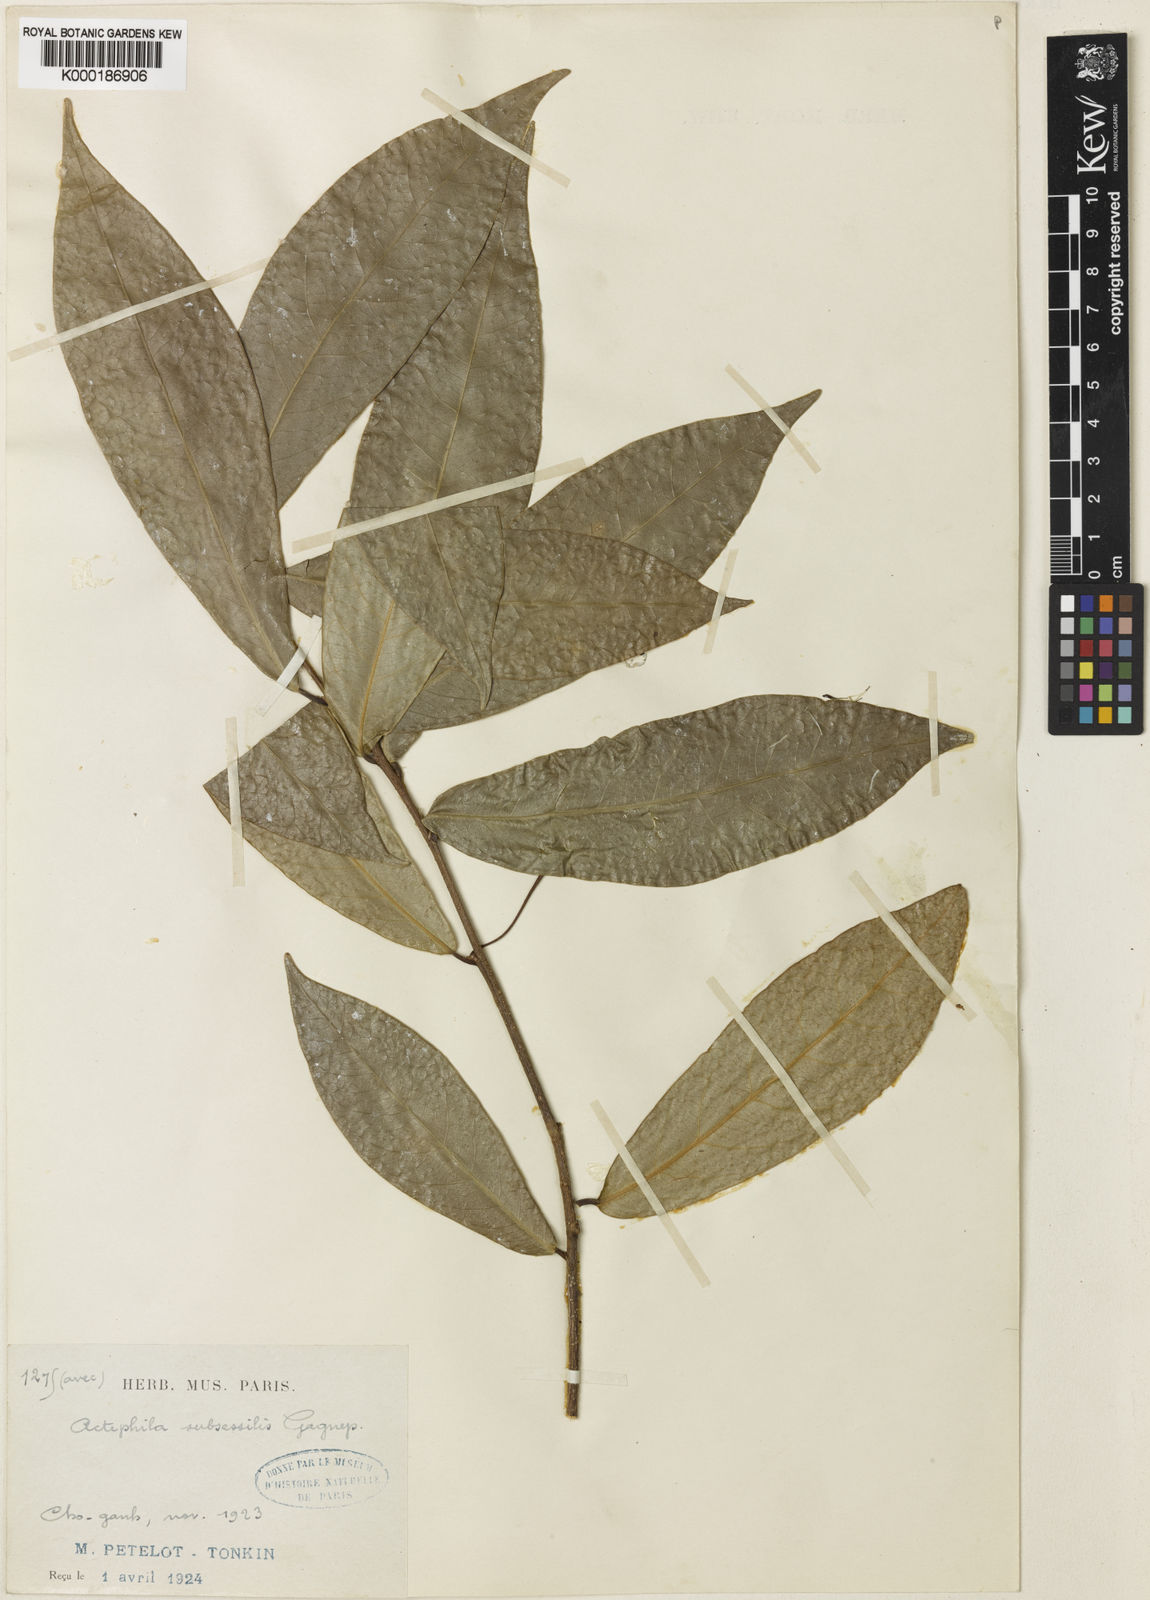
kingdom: Plantae
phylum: Tracheophyta
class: Magnoliopsida
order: Malpighiales
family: Phyllanthaceae
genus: Actephila
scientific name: Actephila subsessilis
